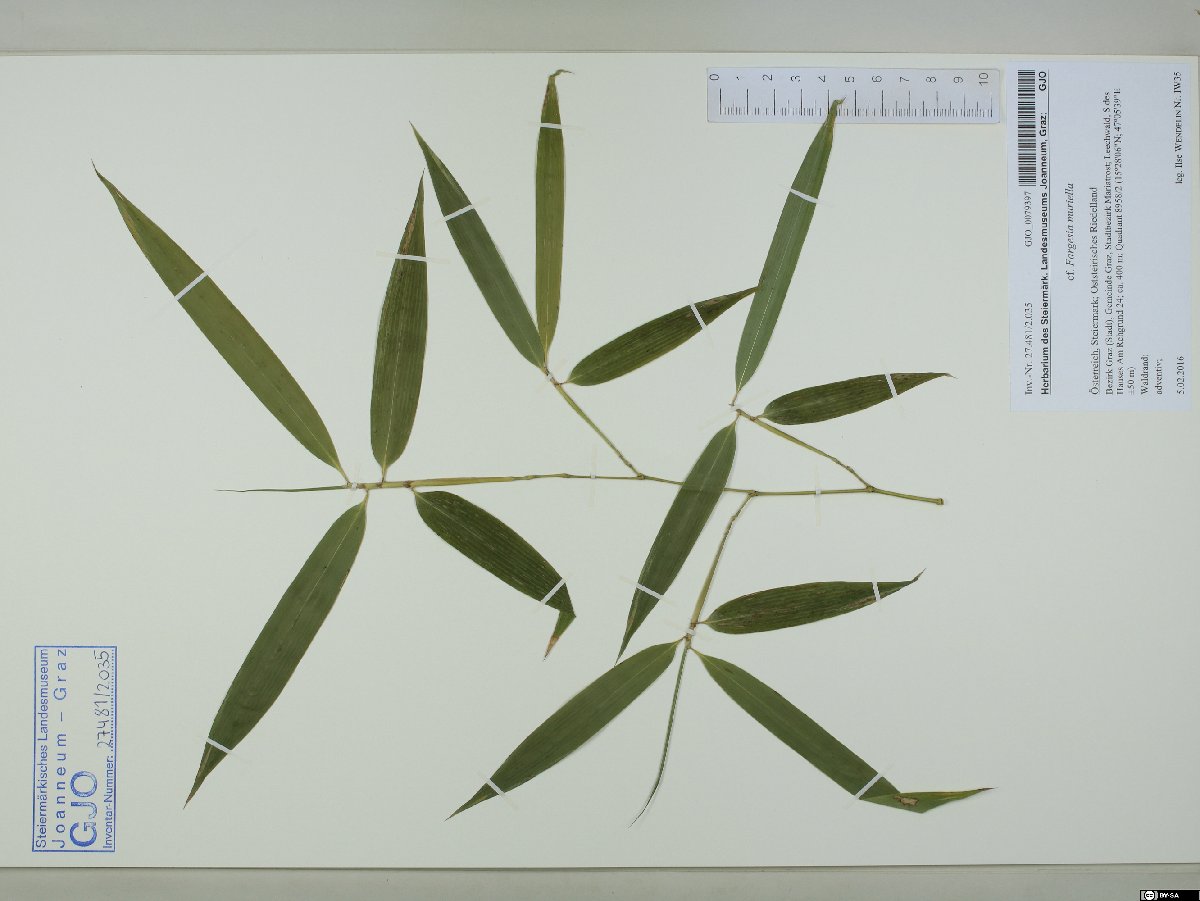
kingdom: Plantae
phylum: Tracheophyta
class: Liliopsida
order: Poales
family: Poaceae
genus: Fargesia
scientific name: Fargesia murielae
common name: Umbrella bamboo
